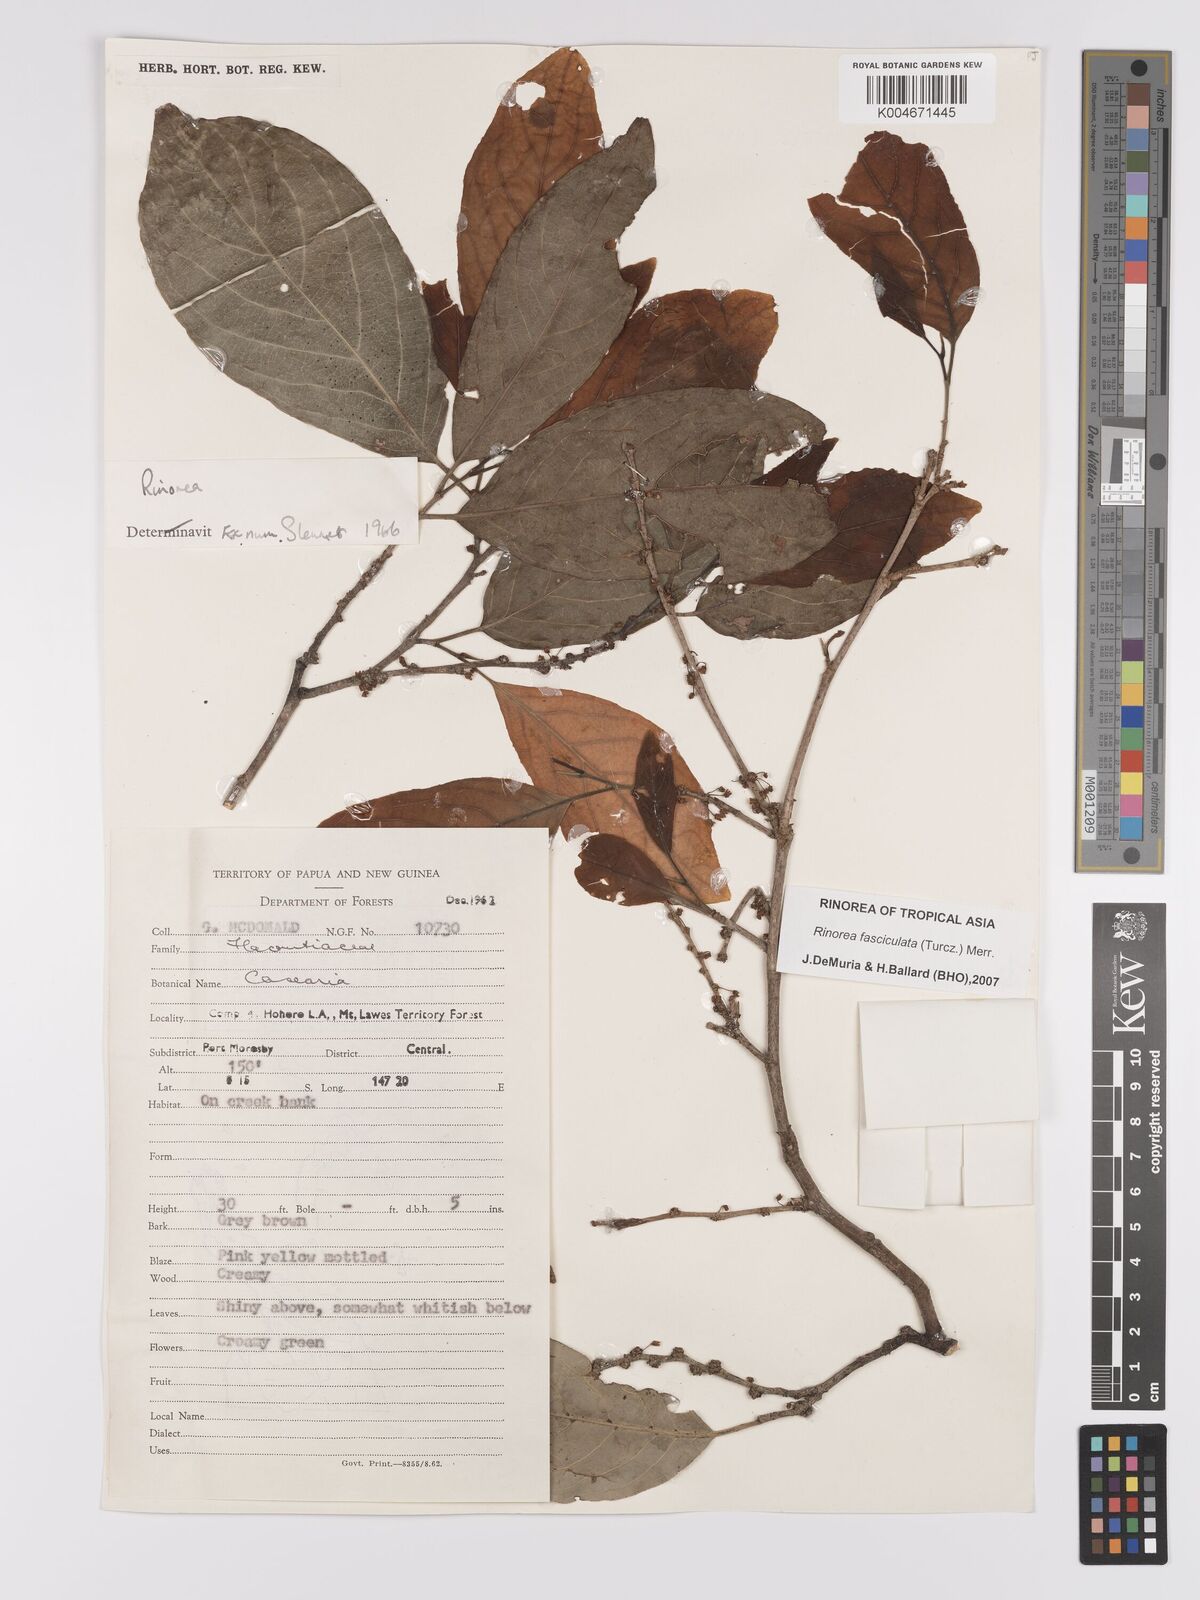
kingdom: Plantae
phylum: Tracheophyta
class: Magnoliopsida
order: Malpighiales
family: Violaceae
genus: Rinorea
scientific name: Rinorea bengalensis
